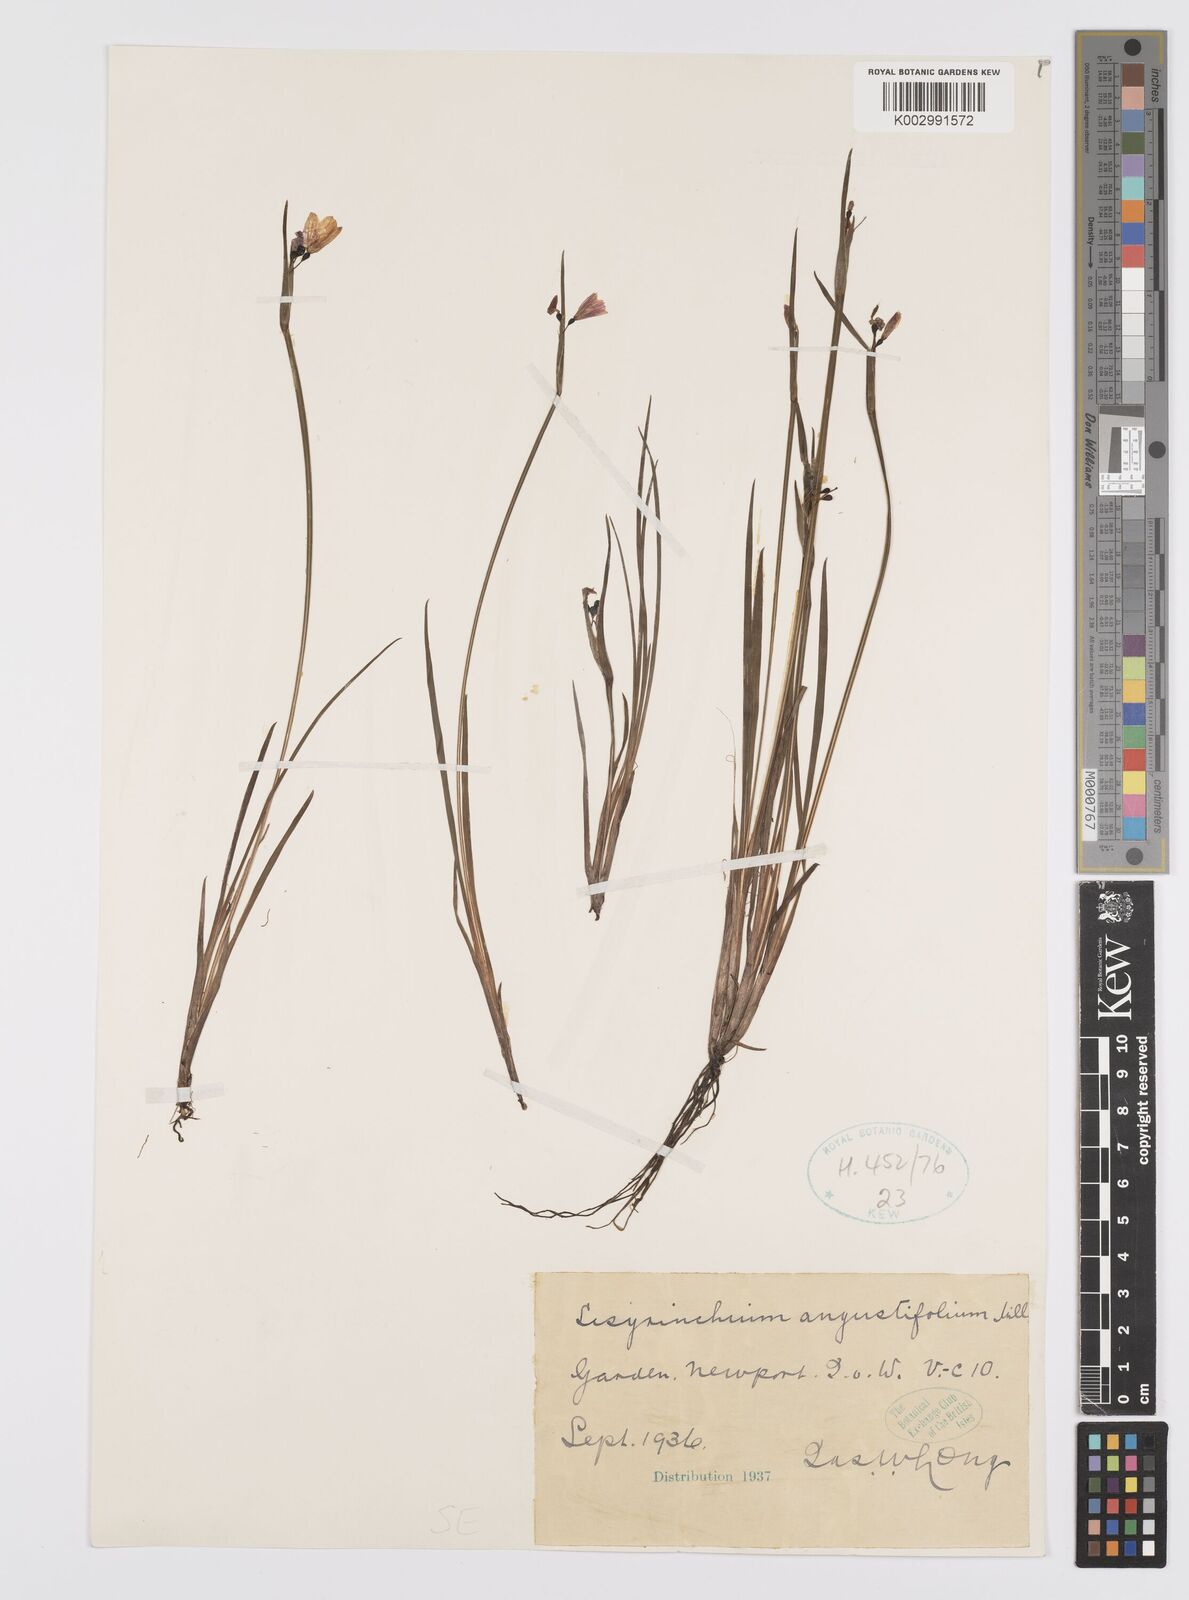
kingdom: Plantae
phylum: Tracheophyta
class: Liliopsida
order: Asparagales
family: Iridaceae
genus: Sisyrinchium
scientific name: Sisyrinchium angustifolium
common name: Narrow-leaf blue-eyed-grass
